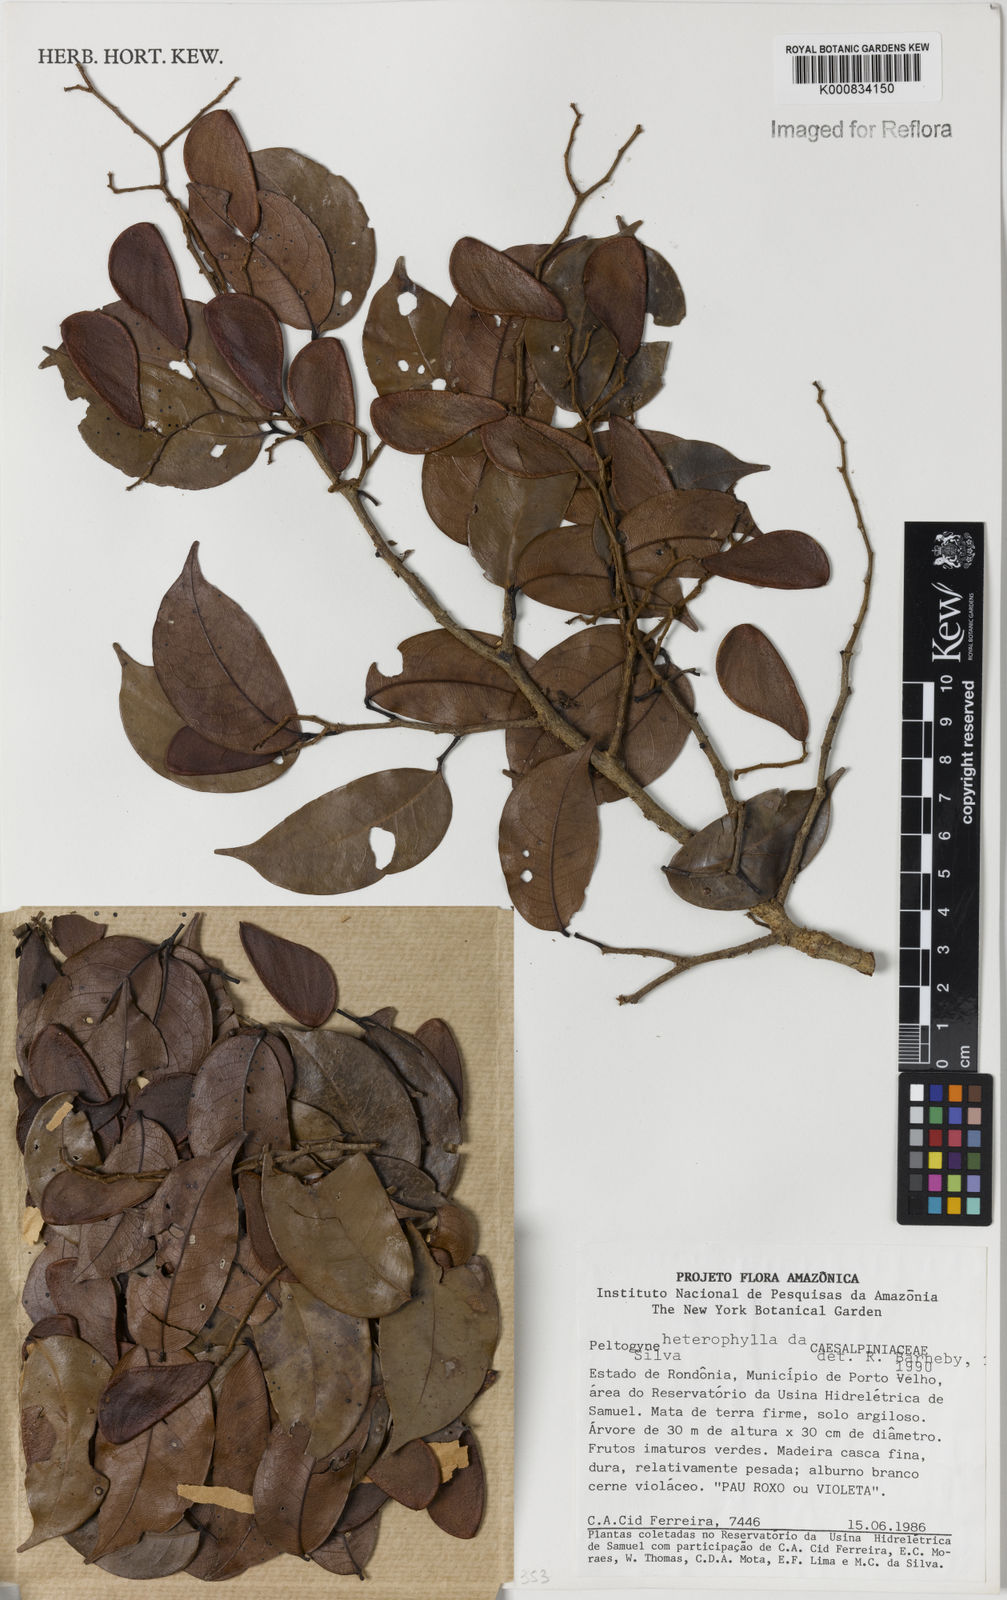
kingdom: Plantae
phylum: Tracheophyta
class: Magnoliopsida
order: Fabales
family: Fabaceae
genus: Peltogyne
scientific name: Peltogyne heterophylla
